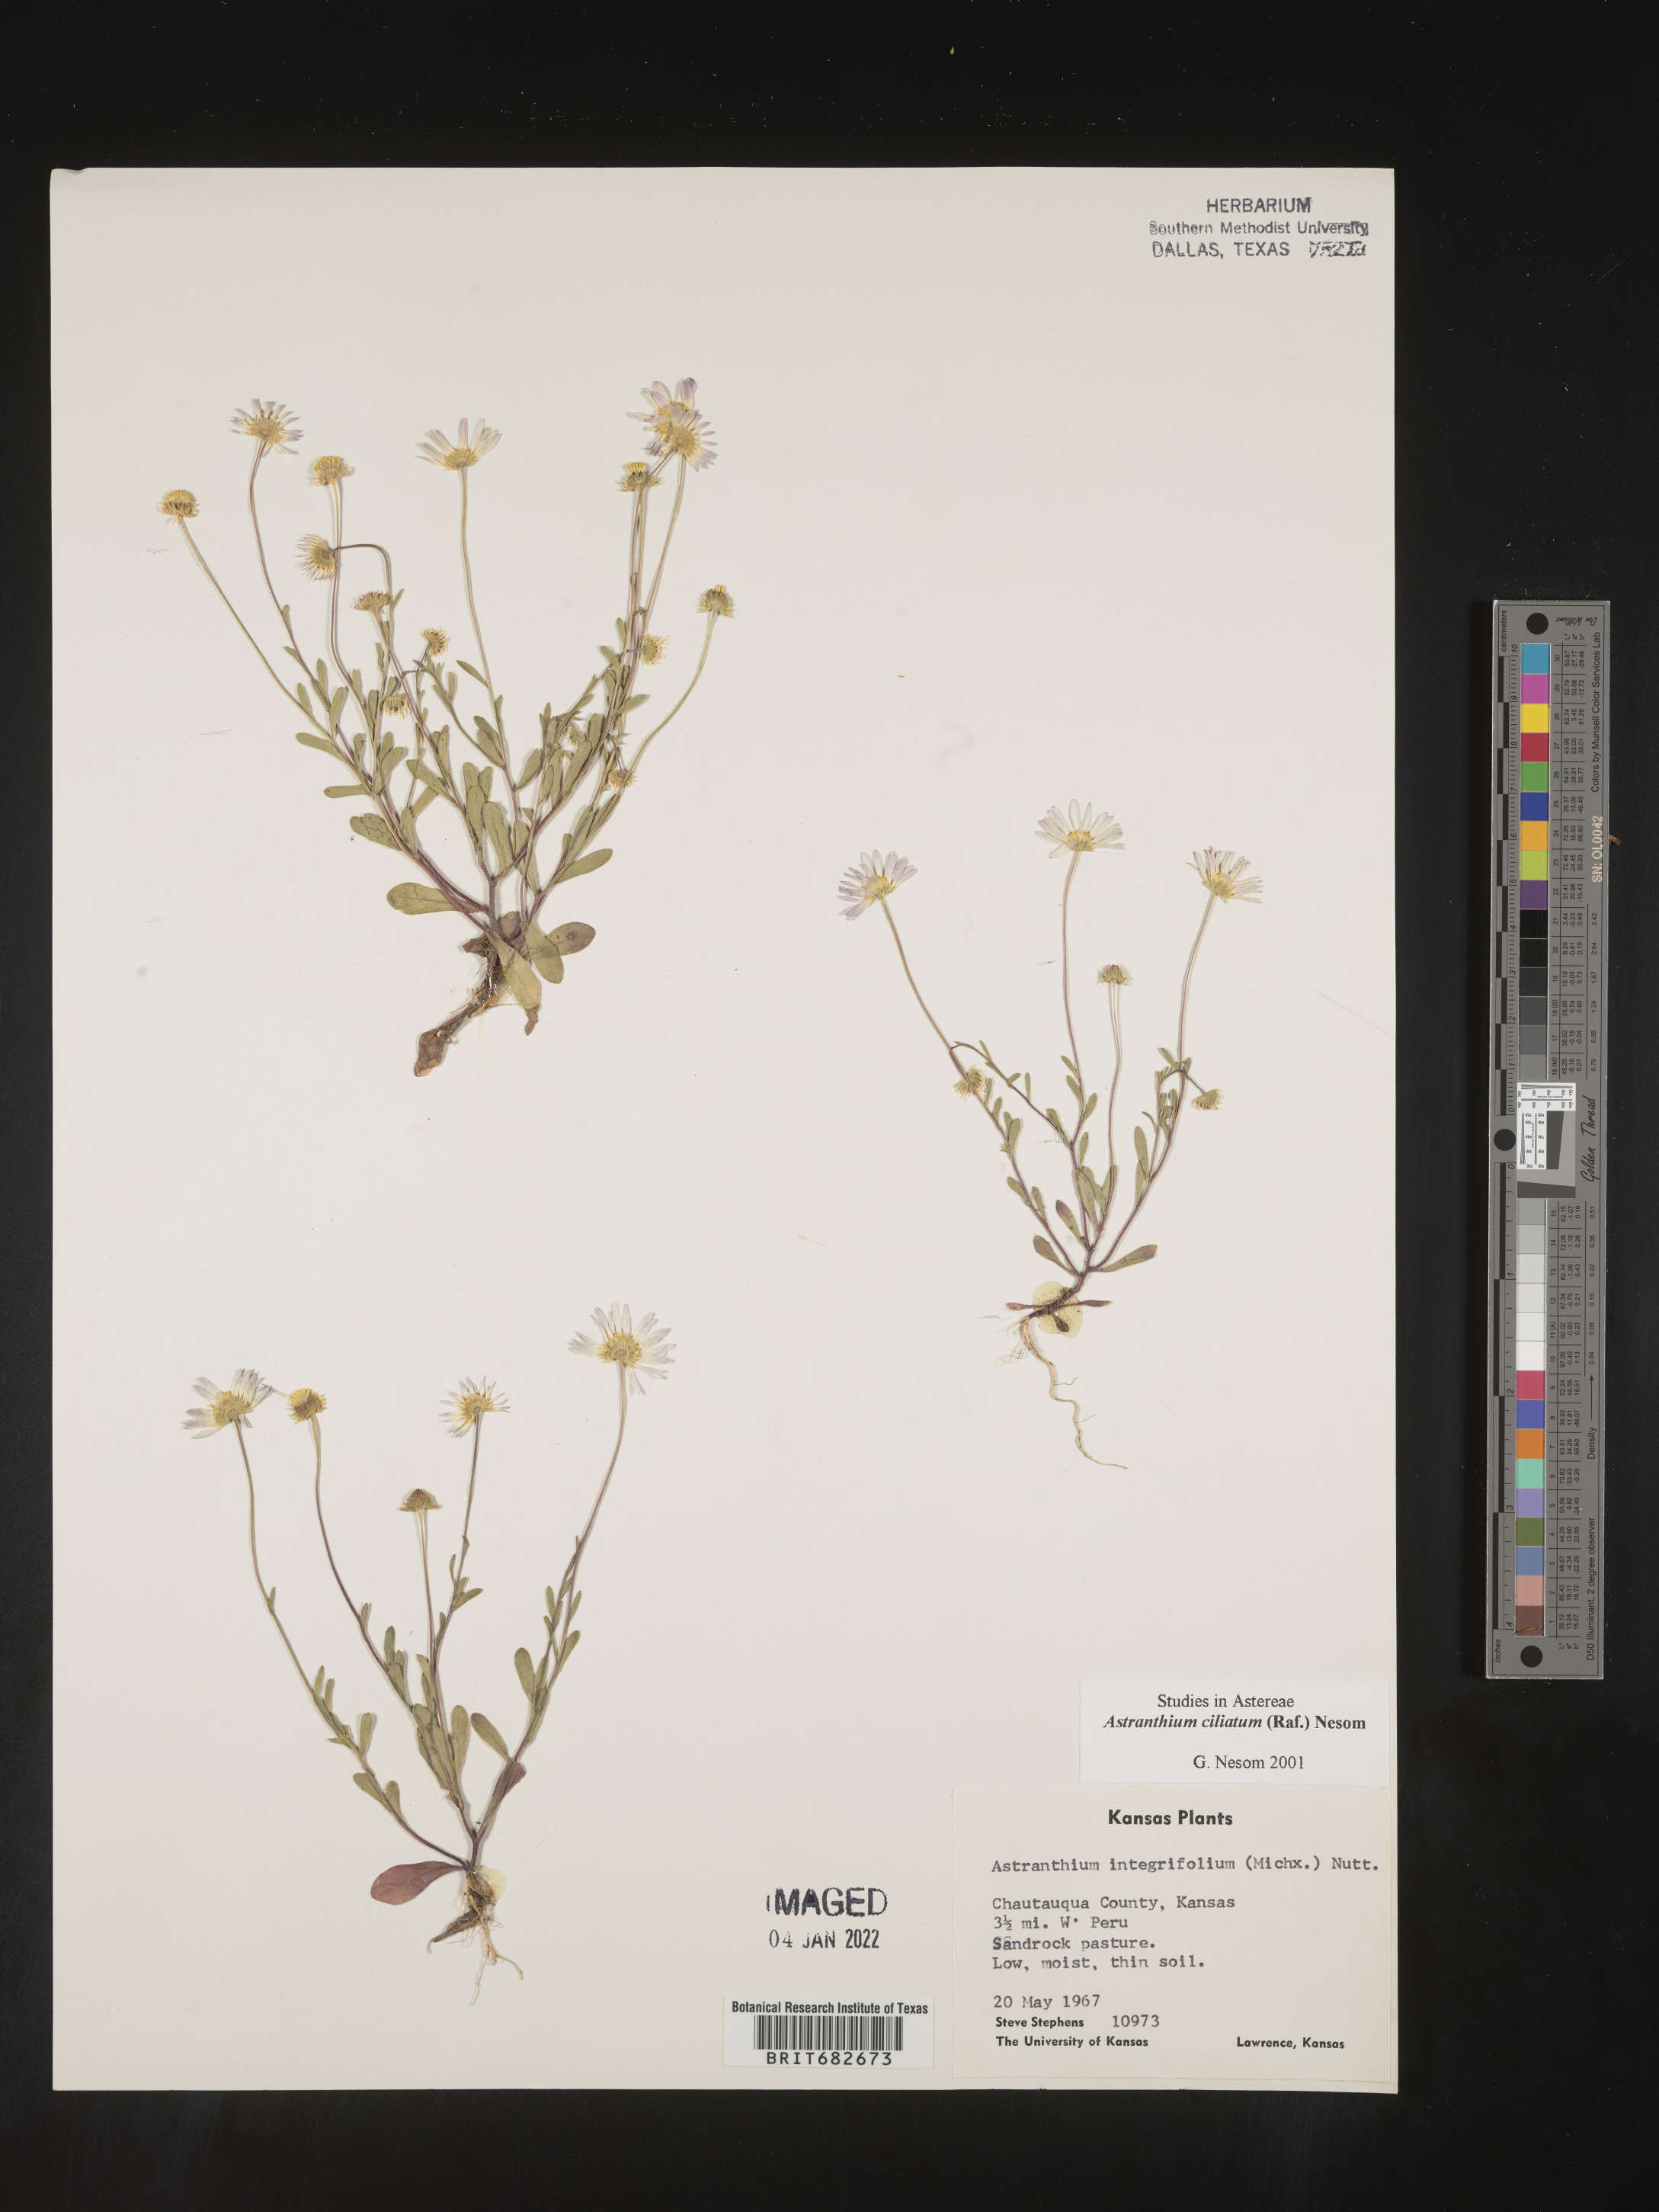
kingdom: Plantae
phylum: Tracheophyta
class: Magnoliopsida
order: Asterales
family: Asteraceae
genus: Astranthium
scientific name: Astranthium ciliatum
